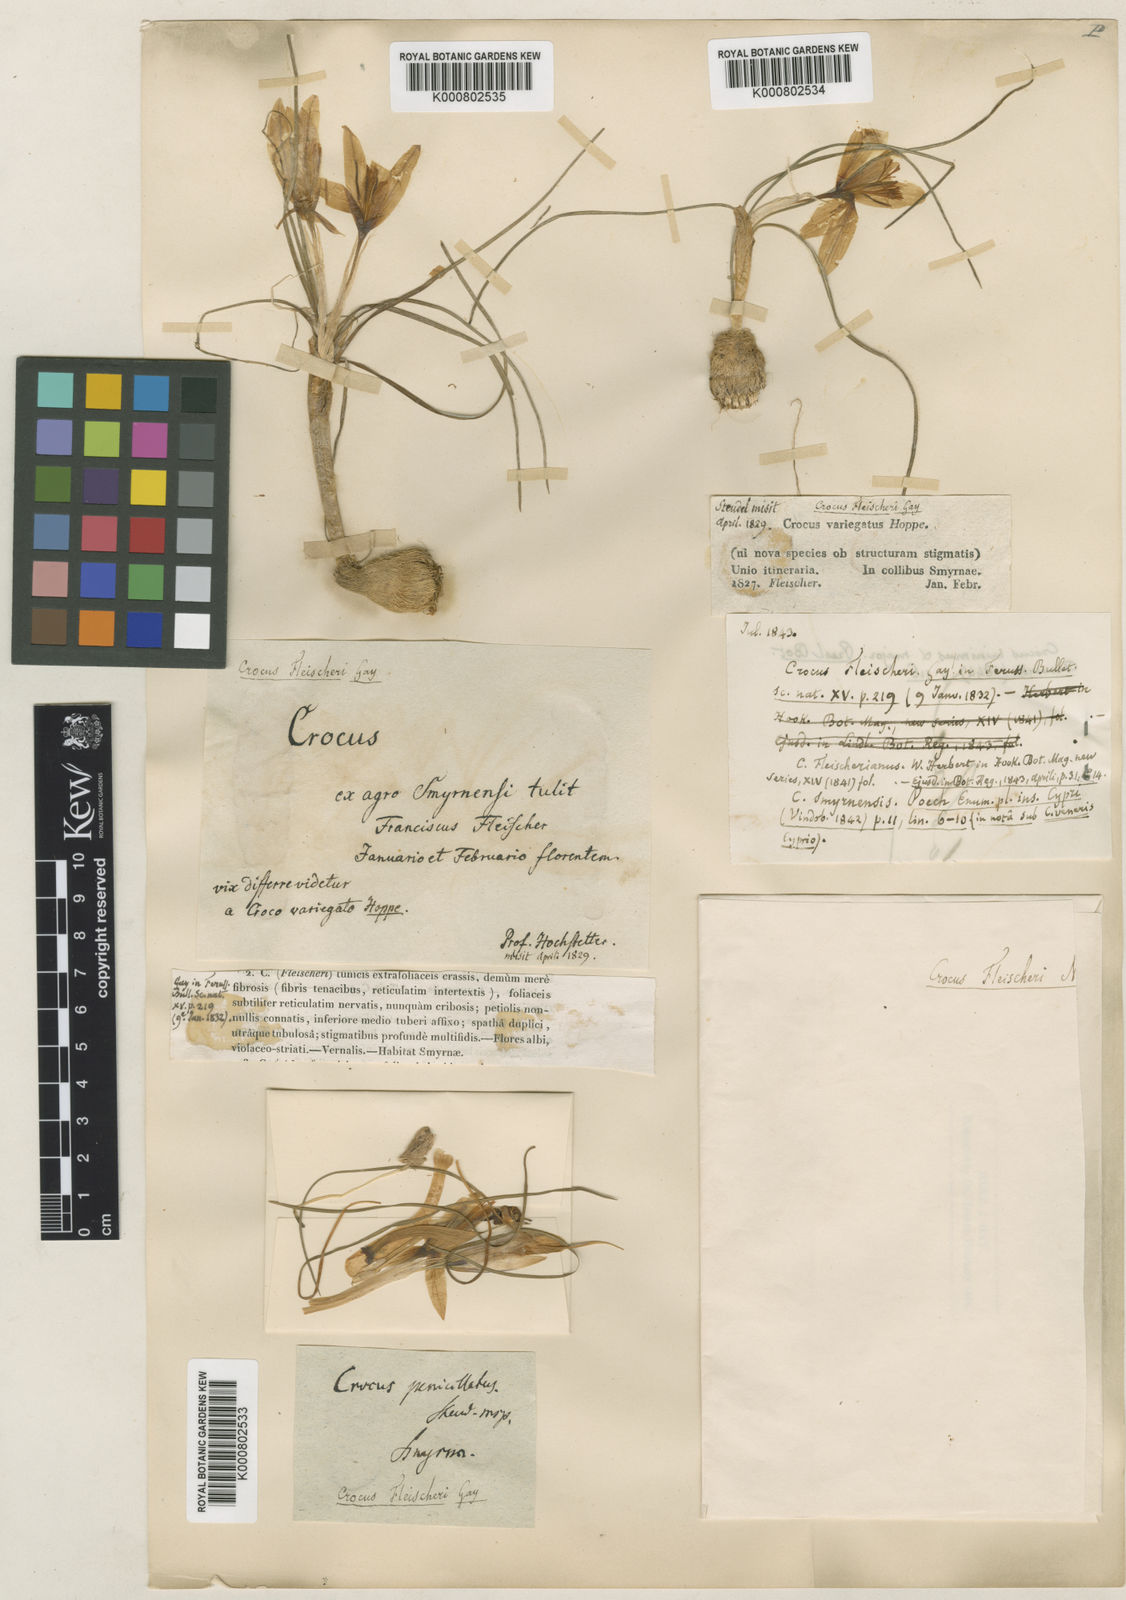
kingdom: Plantae
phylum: Tracheophyta
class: Liliopsida
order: Asparagales
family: Iridaceae
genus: Crocus
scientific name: Crocus fleischeri
